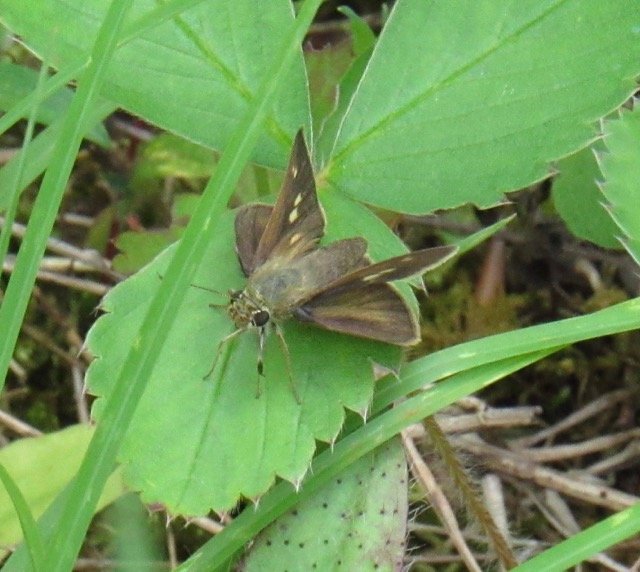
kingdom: Animalia
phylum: Arthropoda
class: Insecta
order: Lepidoptera
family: Hesperiidae
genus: Polites
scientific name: Polites egeremet
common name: Northern Broken-Dash
